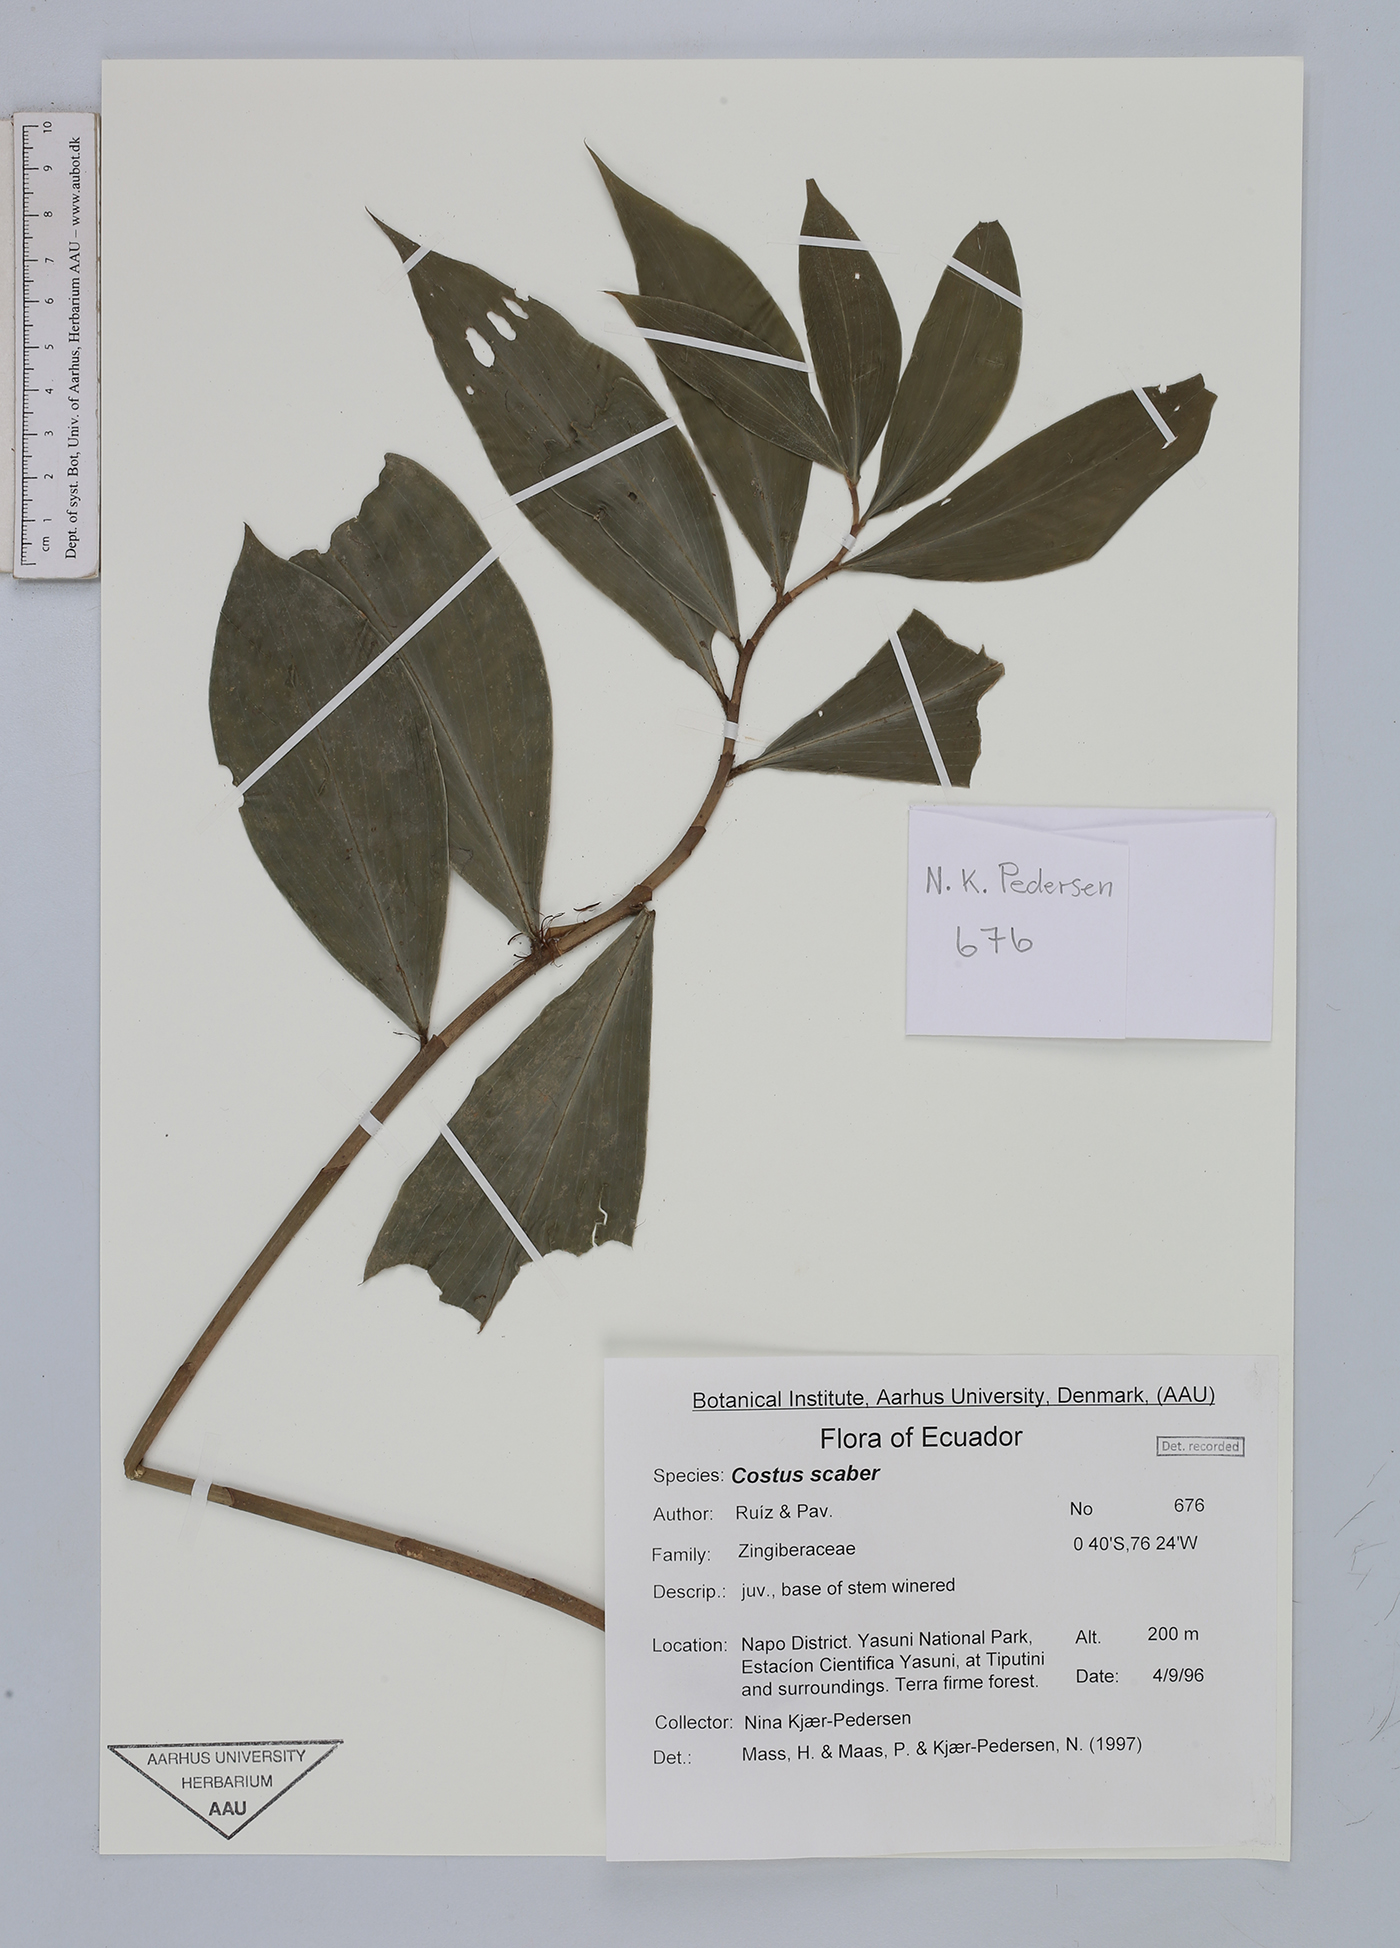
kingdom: Plantae
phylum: Tracheophyta
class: Liliopsida
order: Zingiberales
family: Costaceae
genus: Costus
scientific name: Costus scaber
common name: Spiral head ginger
